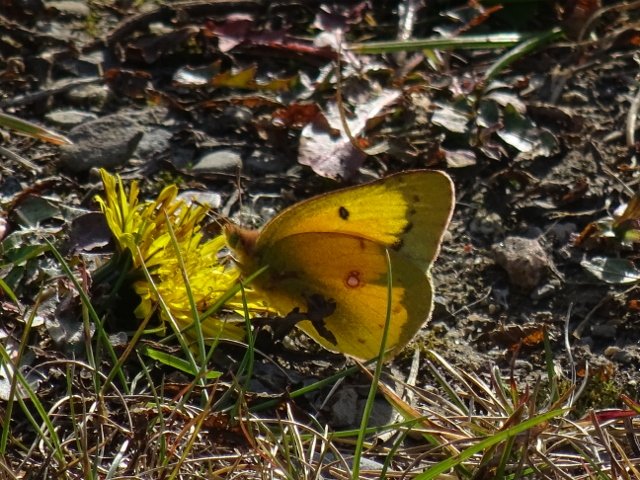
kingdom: Animalia
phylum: Arthropoda
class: Insecta
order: Lepidoptera
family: Pieridae
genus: Colias
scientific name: Colias eurytheme
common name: Orange Sulphur
